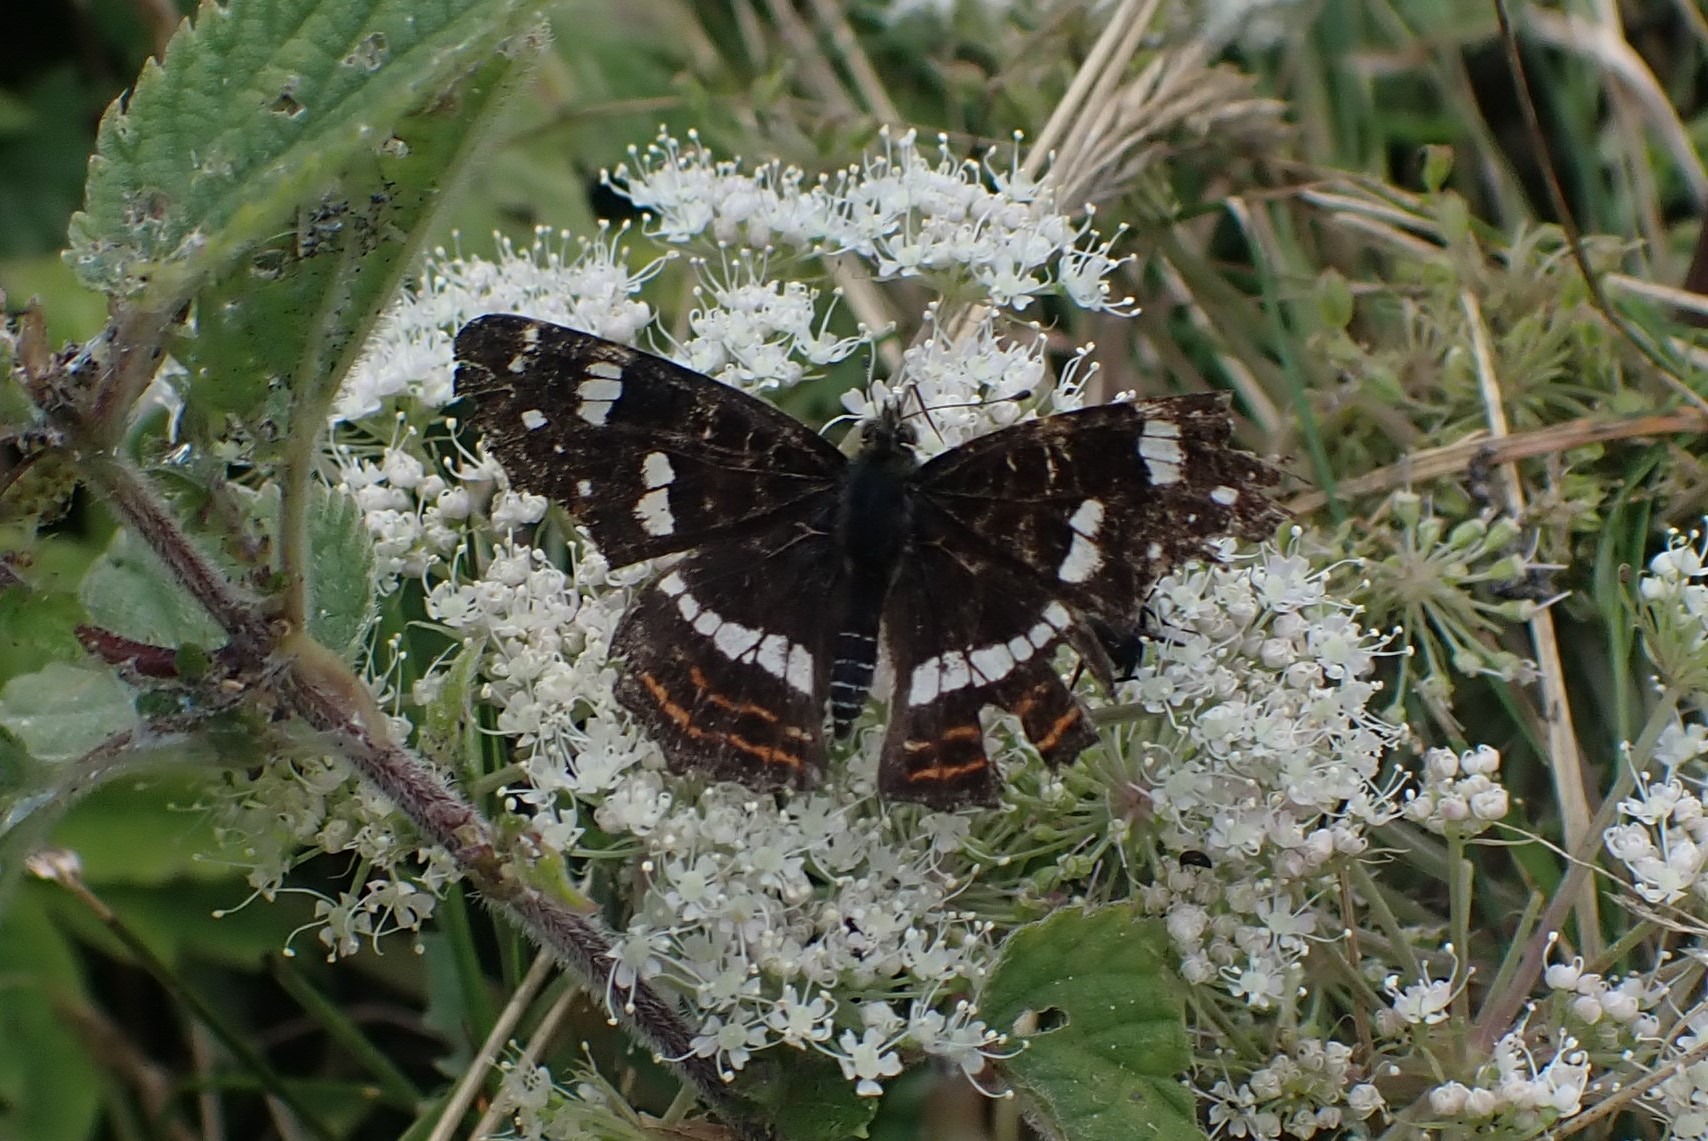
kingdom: Animalia
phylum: Arthropoda
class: Insecta
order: Lepidoptera
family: Nymphalidae
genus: Araschnia
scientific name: Araschnia levana
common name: Nældesommerfugl
